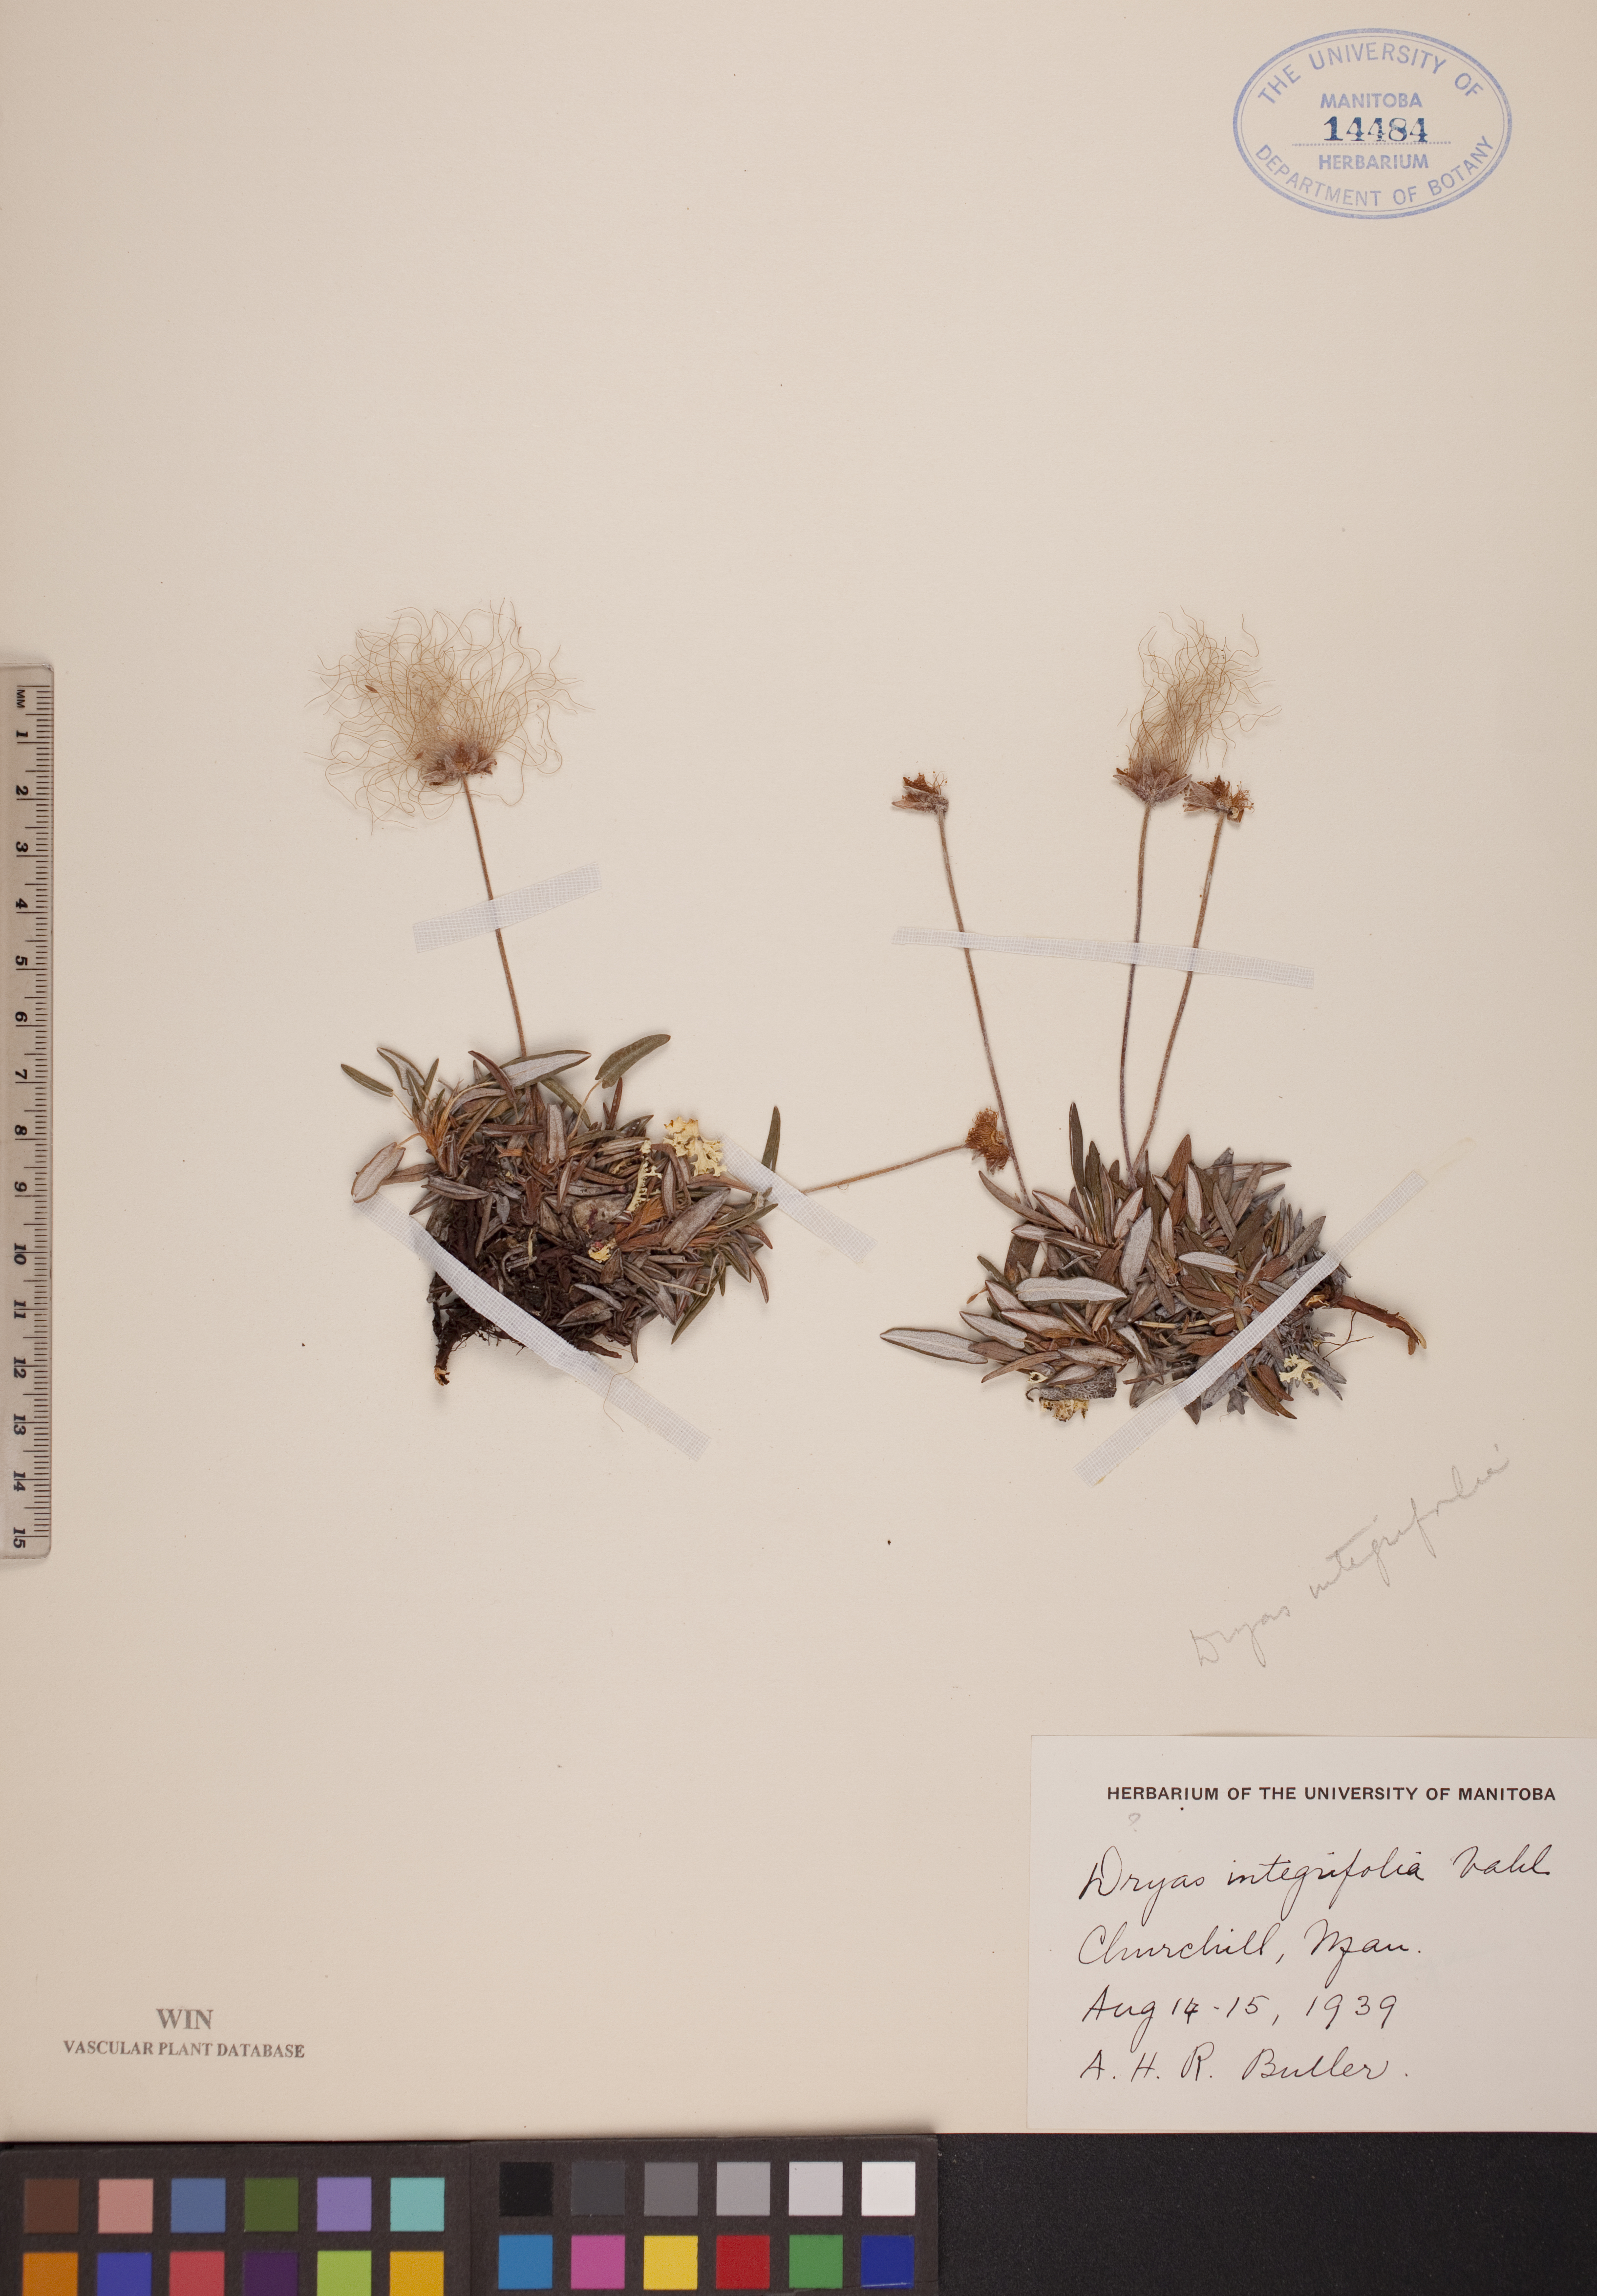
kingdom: Plantae
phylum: Tracheophyta
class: Magnoliopsida
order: Rosales
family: Rosaceae
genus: Dryas
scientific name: Dryas integrifolia
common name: Entire-leaved mountain avens
